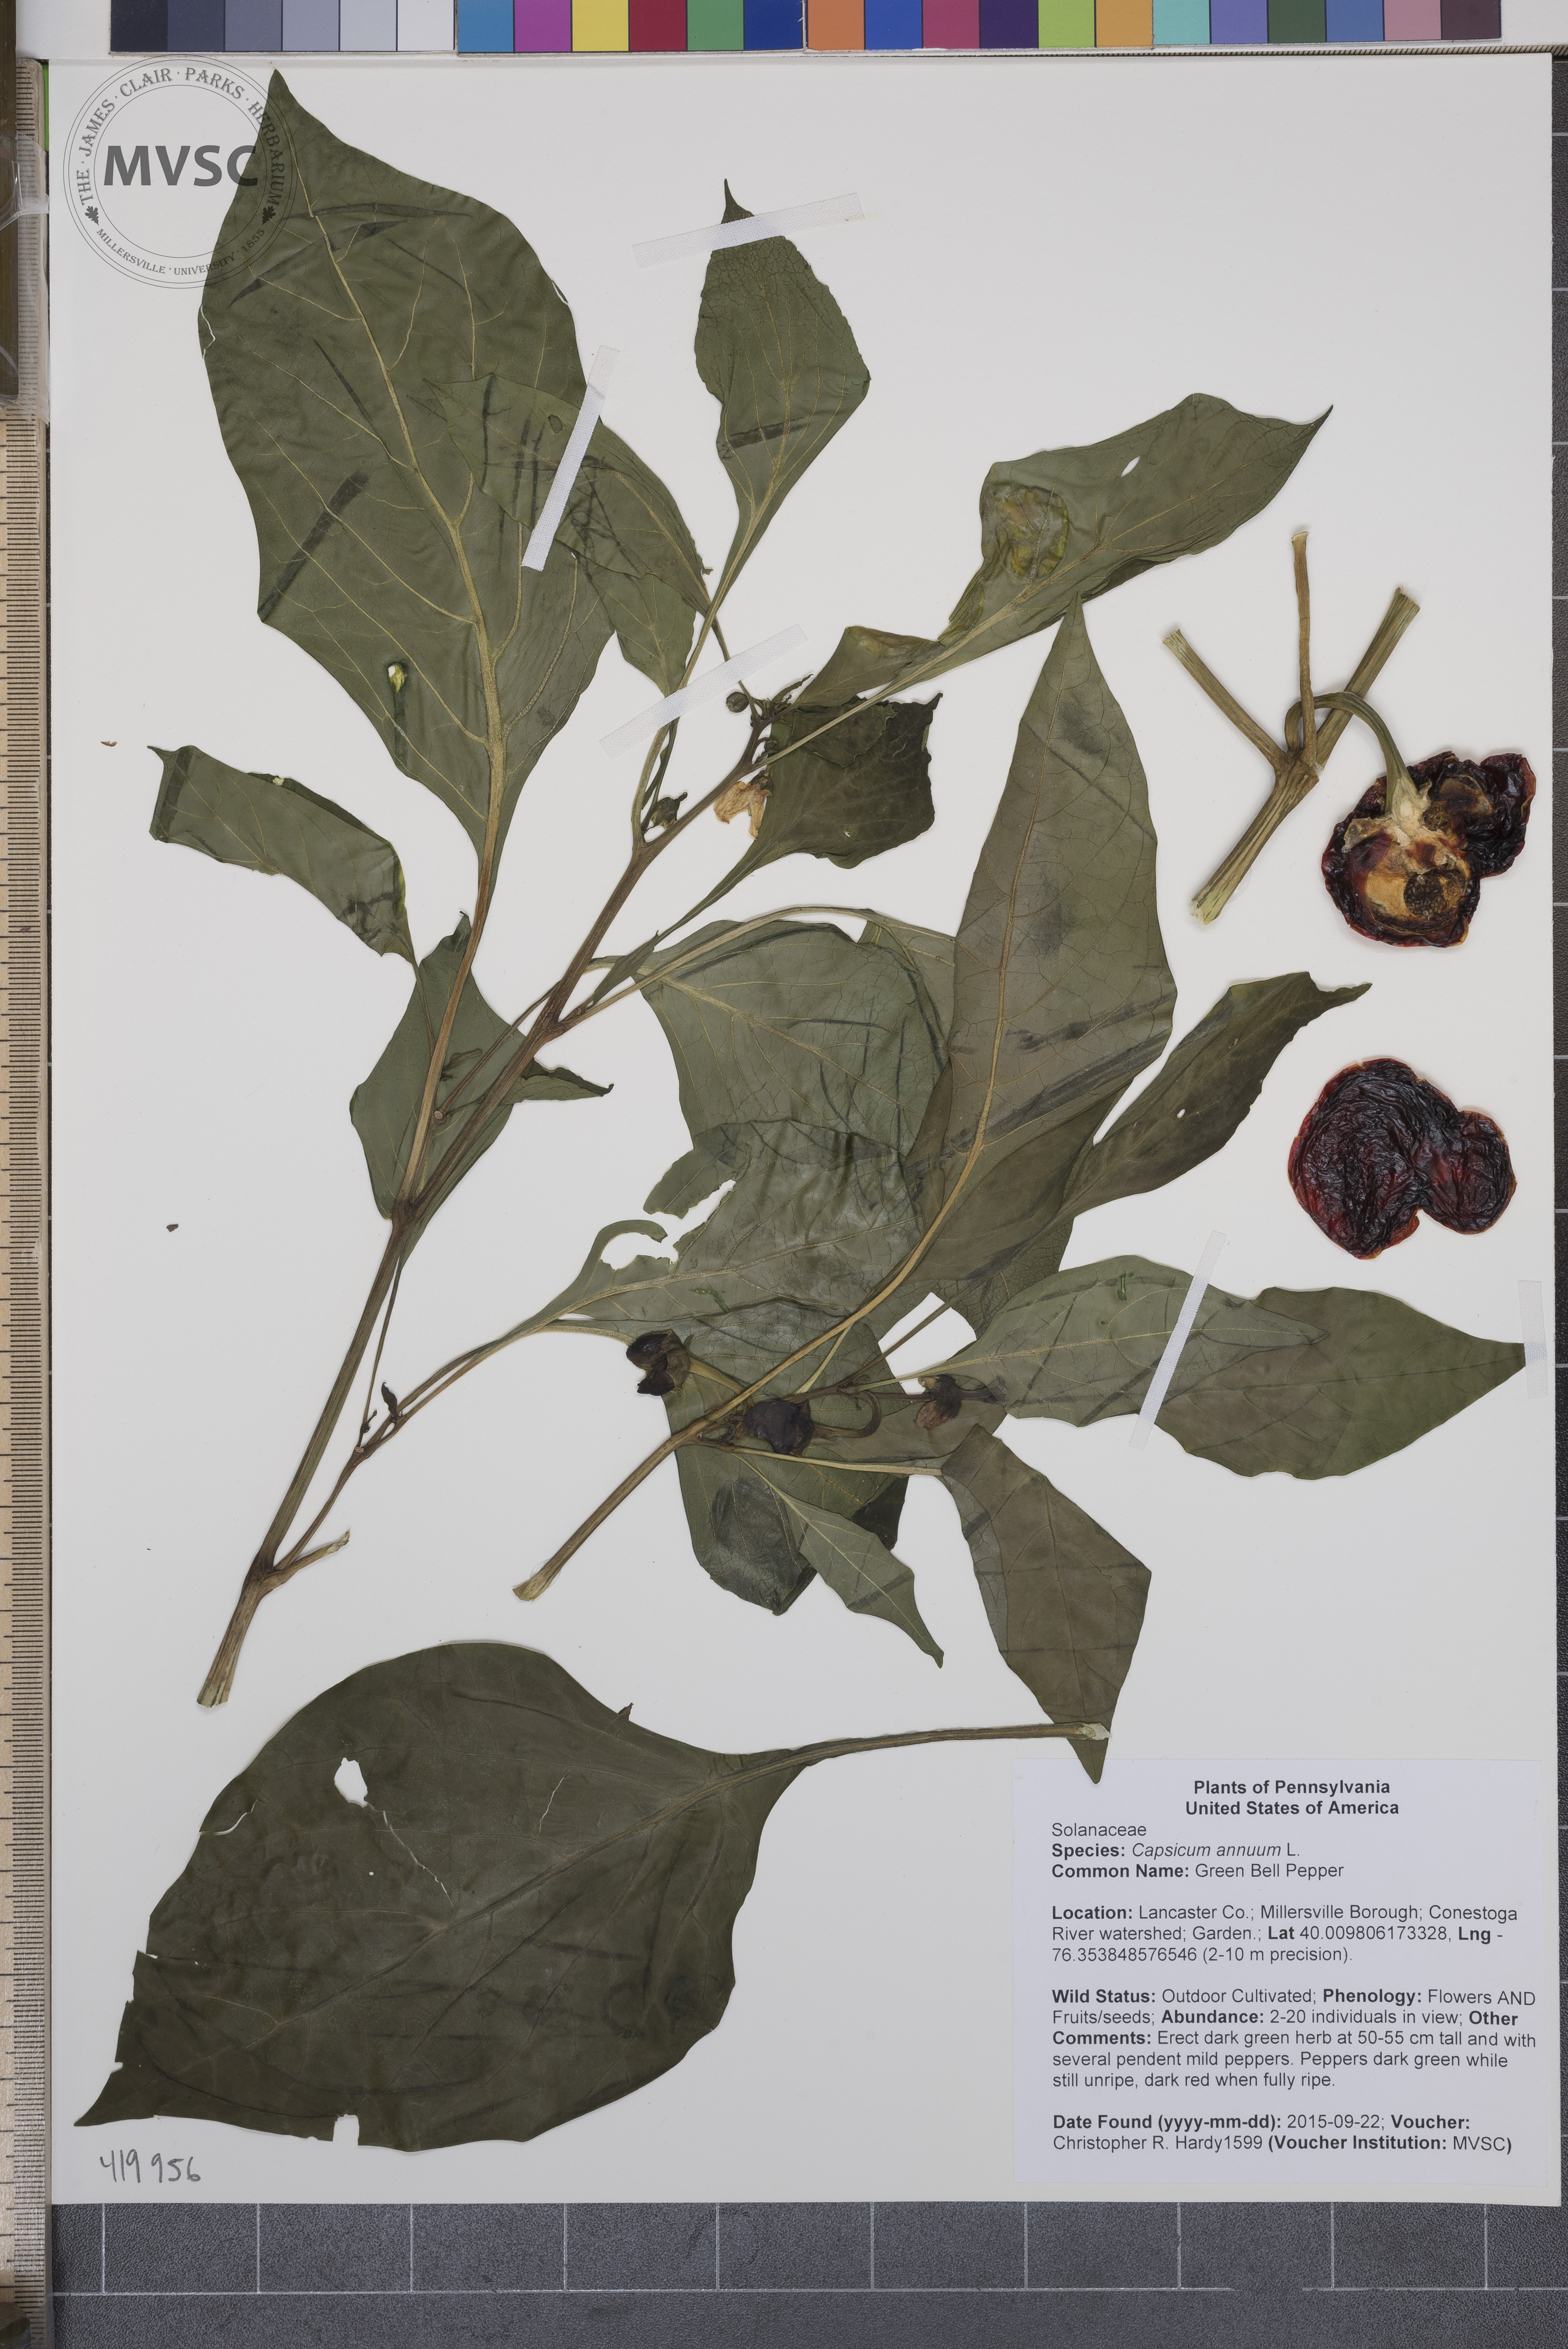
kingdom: Plantae
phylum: Tracheophyta
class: Magnoliopsida
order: Solanales
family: Solanaceae
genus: Capsicum
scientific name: Capsicum annuum
